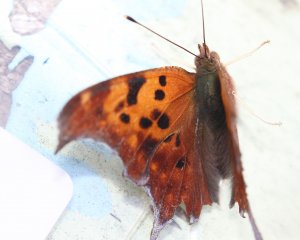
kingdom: Animalia
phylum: Arthropoda
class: Insecta
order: Lepidoptera
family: Nymphalidae
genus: Polygonia
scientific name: Polygonia interrogationis
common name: Question Mark
